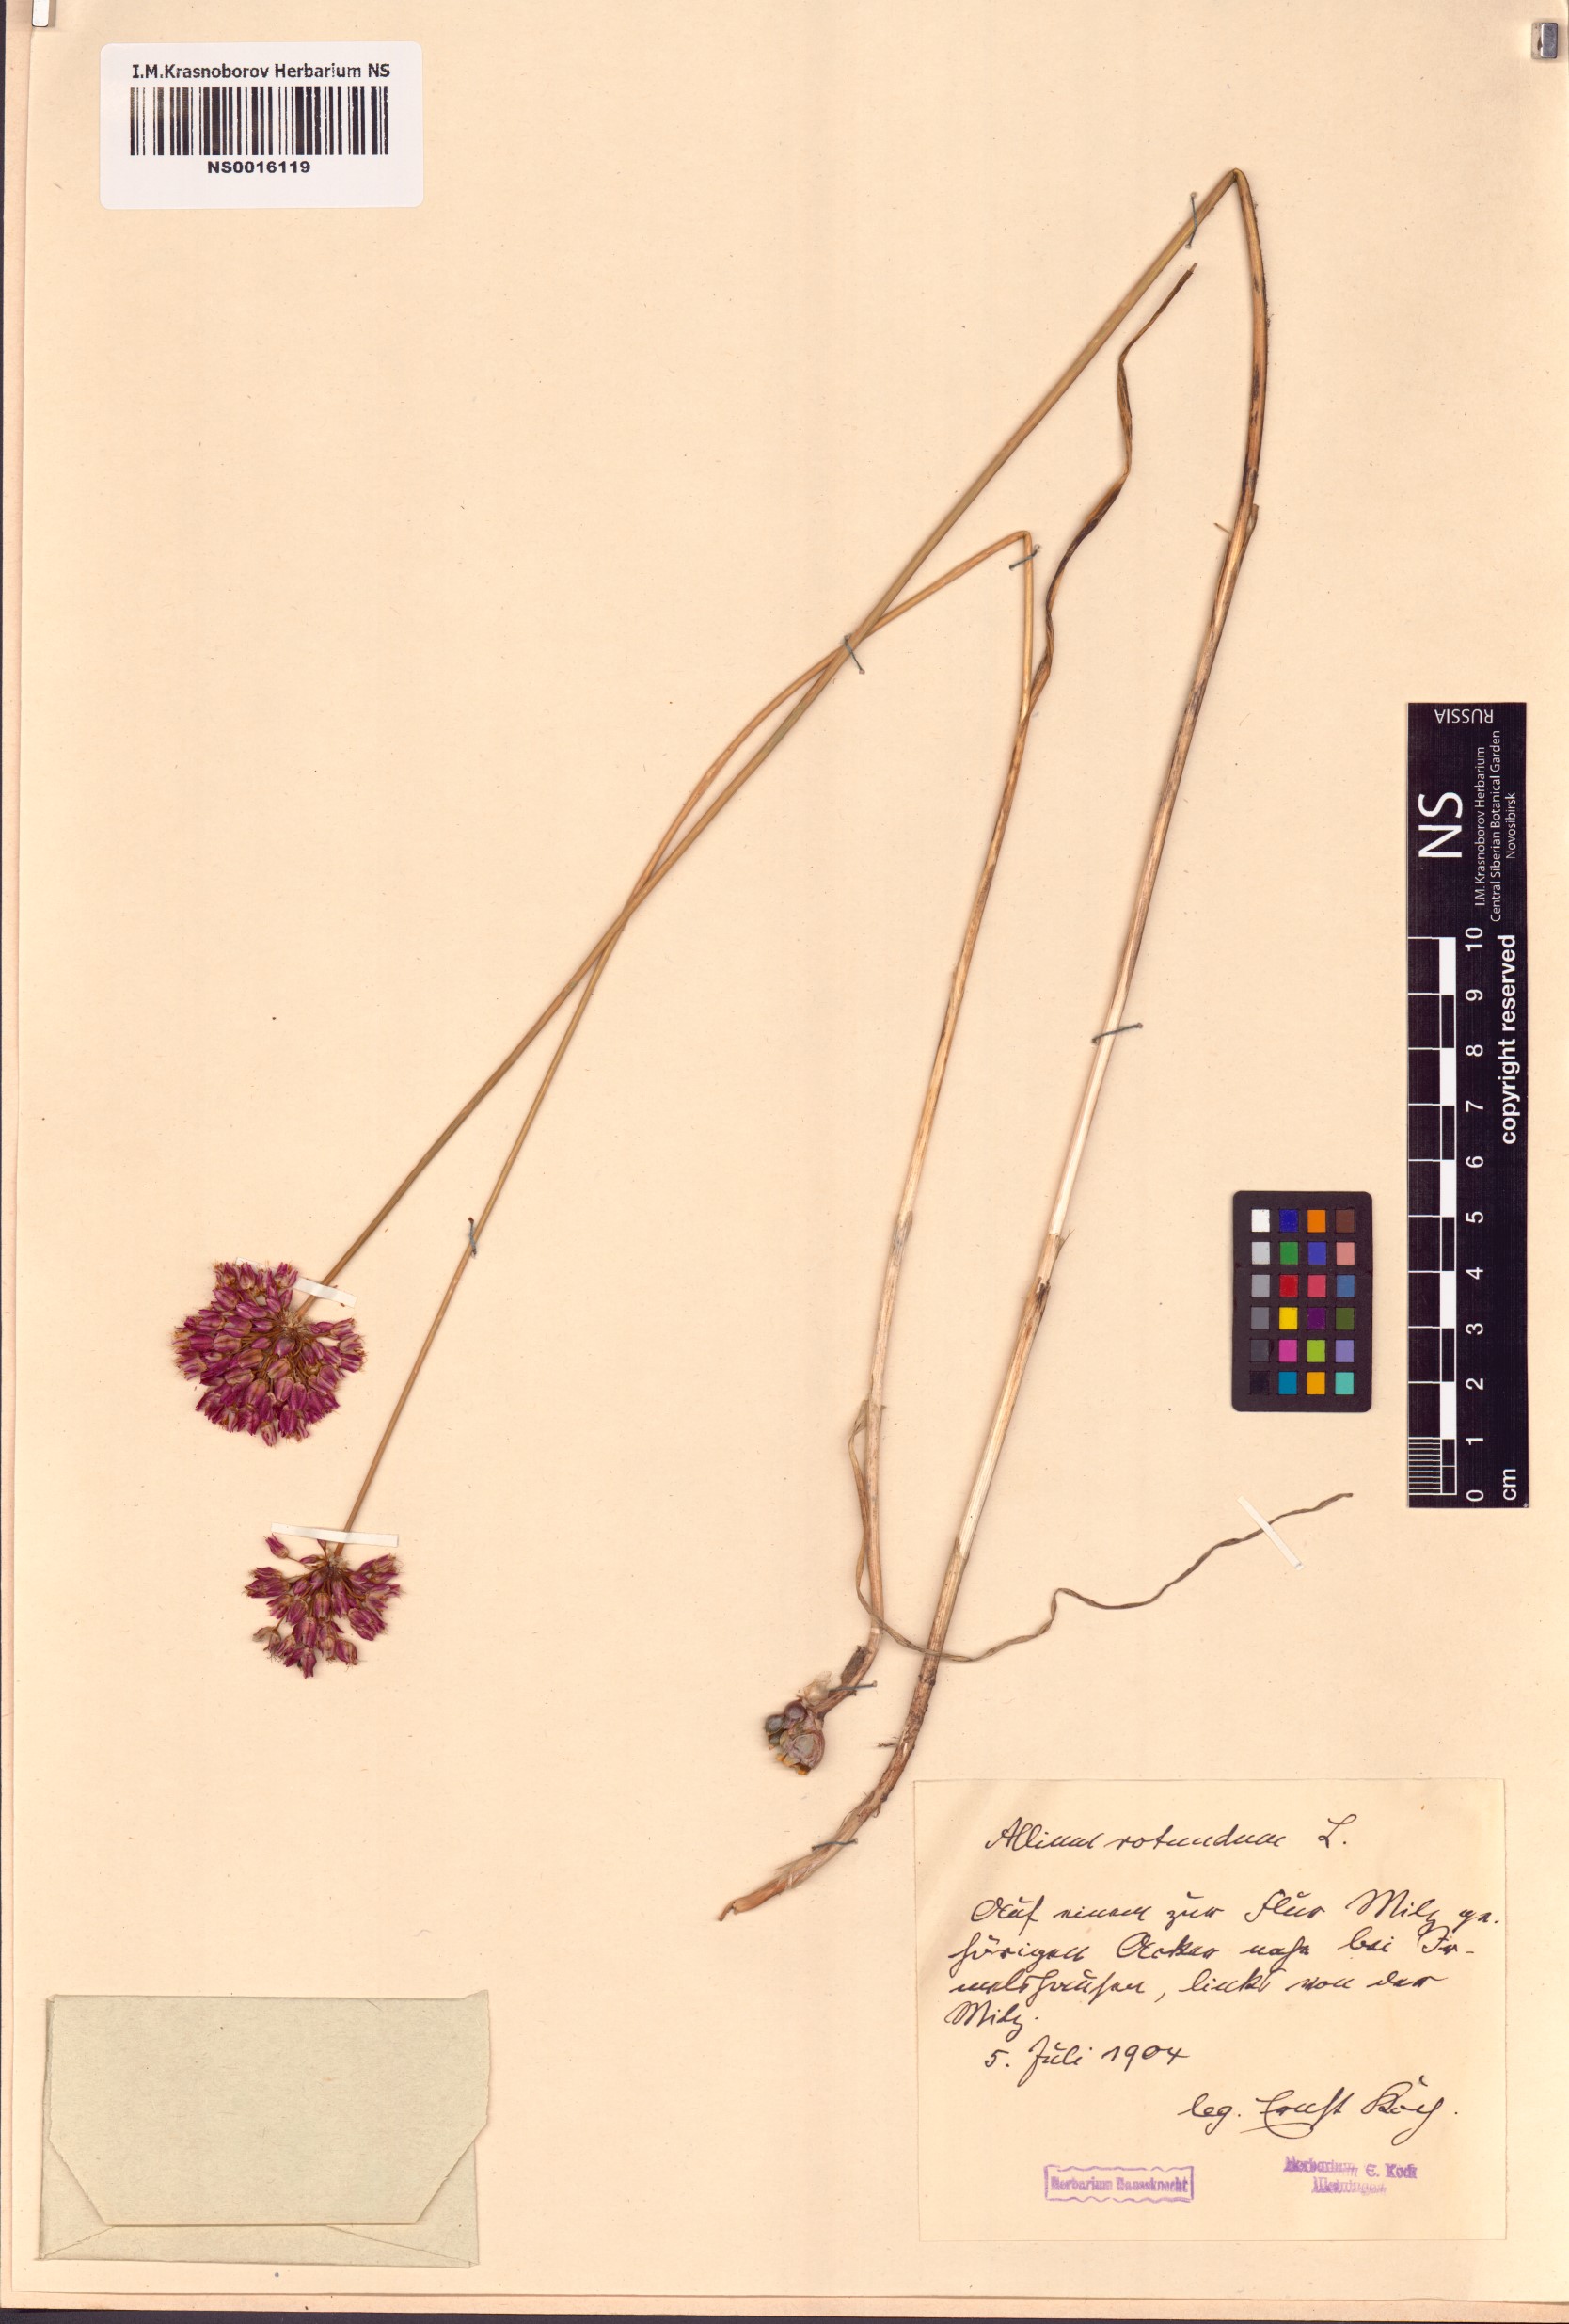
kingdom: Plantae
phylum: Tracheophyta
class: Liliopsida
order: Asparagales
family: Amaryllidaceae
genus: Allium
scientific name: Allium rotundum
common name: Sand leek
